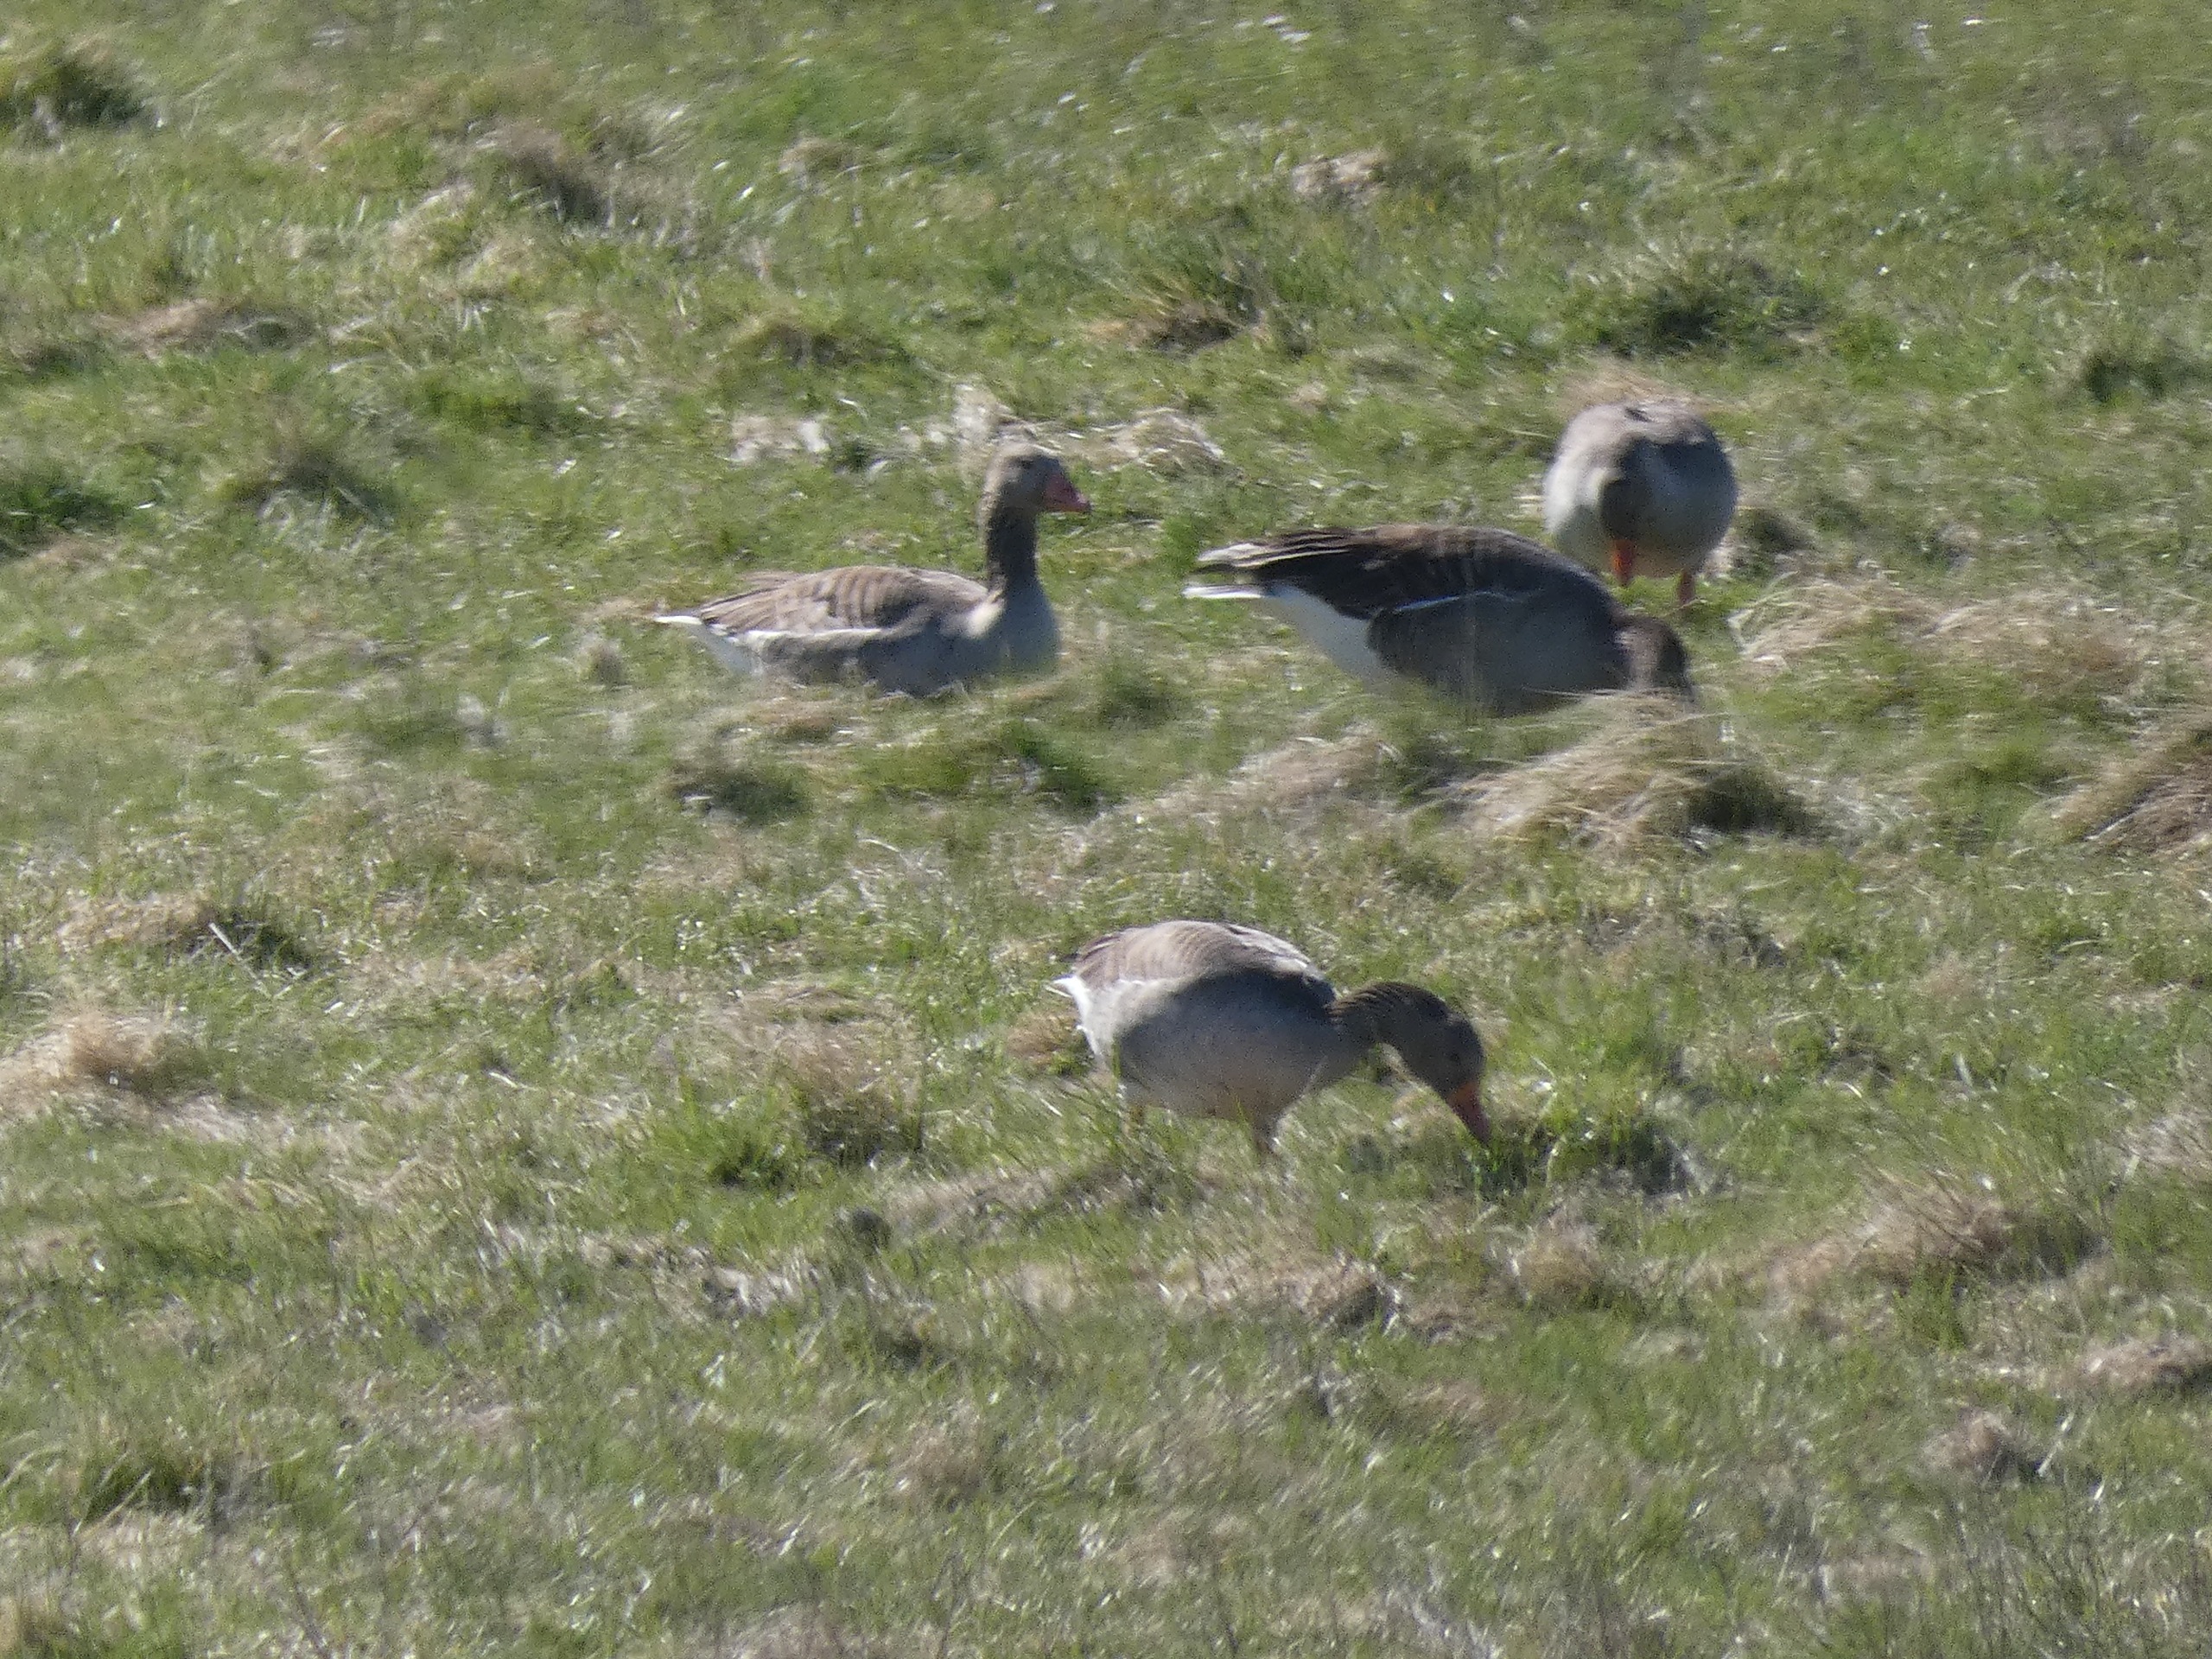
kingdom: Animalia
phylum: Chordata
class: Aves
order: Anseriformes
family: Anatidae
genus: Anser
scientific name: Anser anser
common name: Grågås
